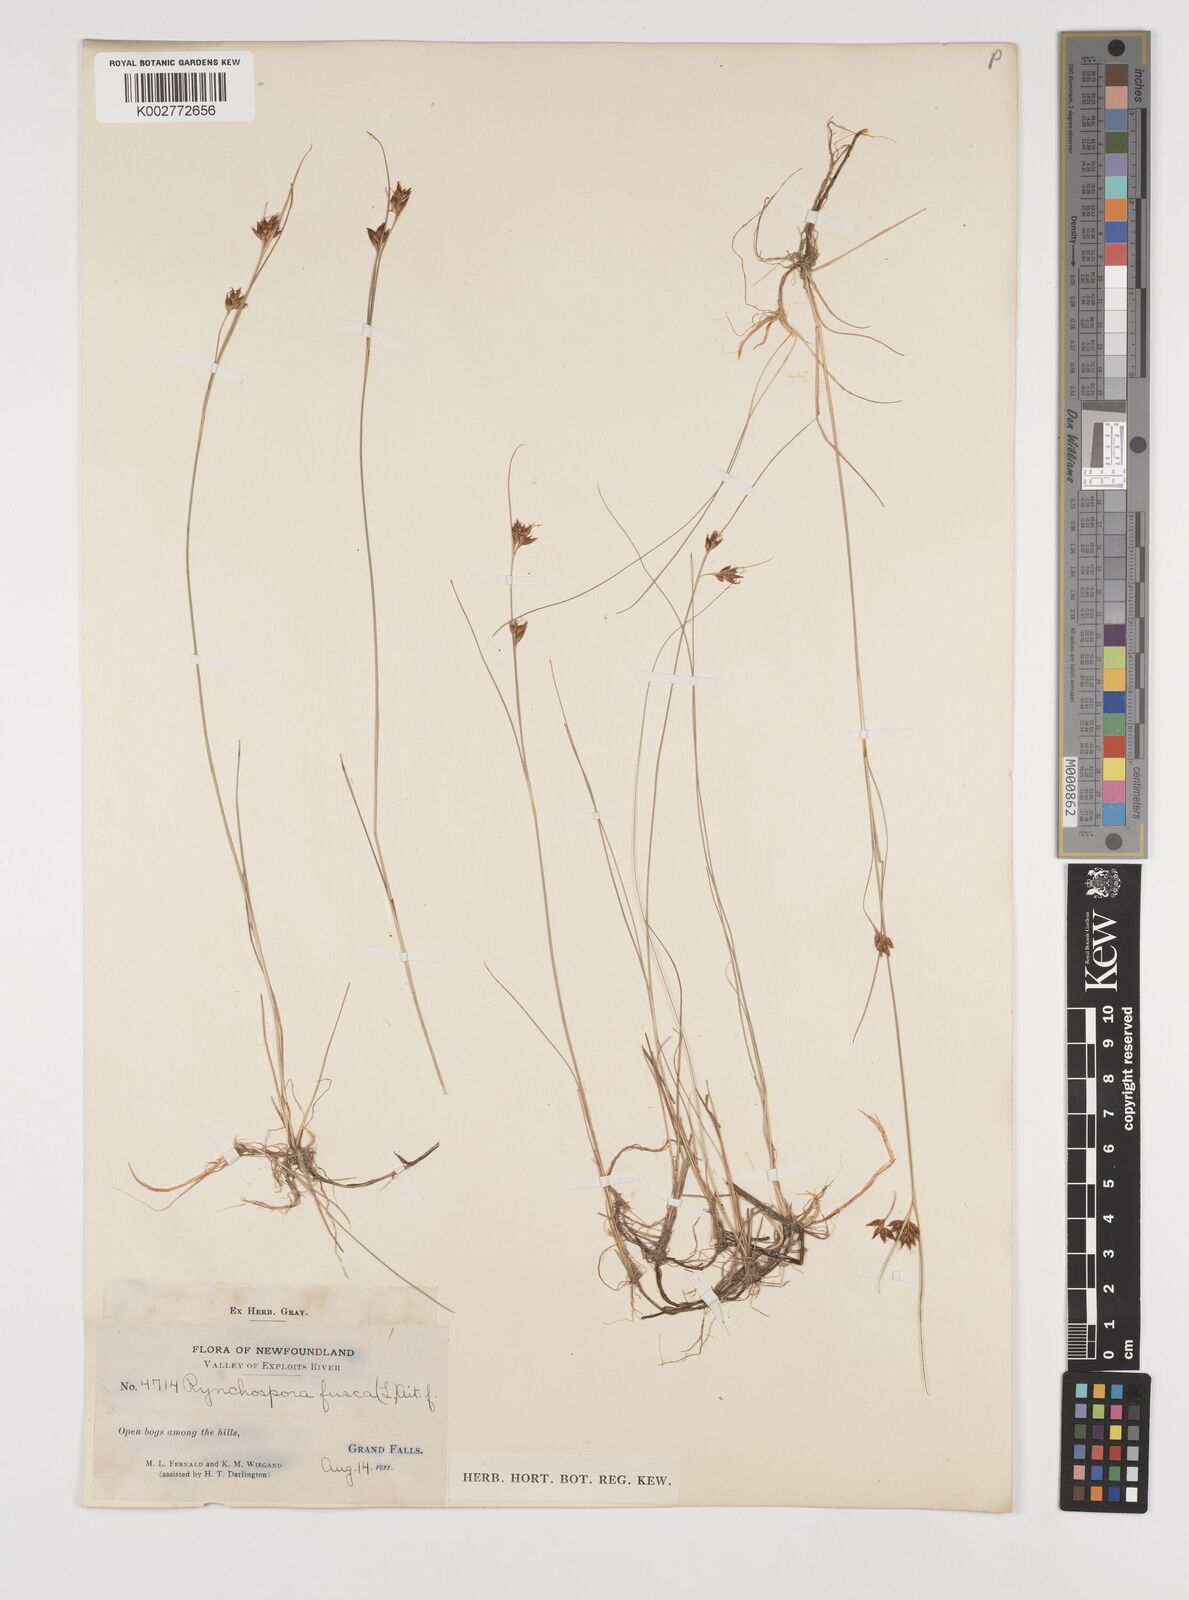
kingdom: Plantae
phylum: Tracheophyta
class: Liliopsida
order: Poales
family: Cyperaceae
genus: Rhynchospora
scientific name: Rhynchospora fusca
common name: Brown beak-sedge
